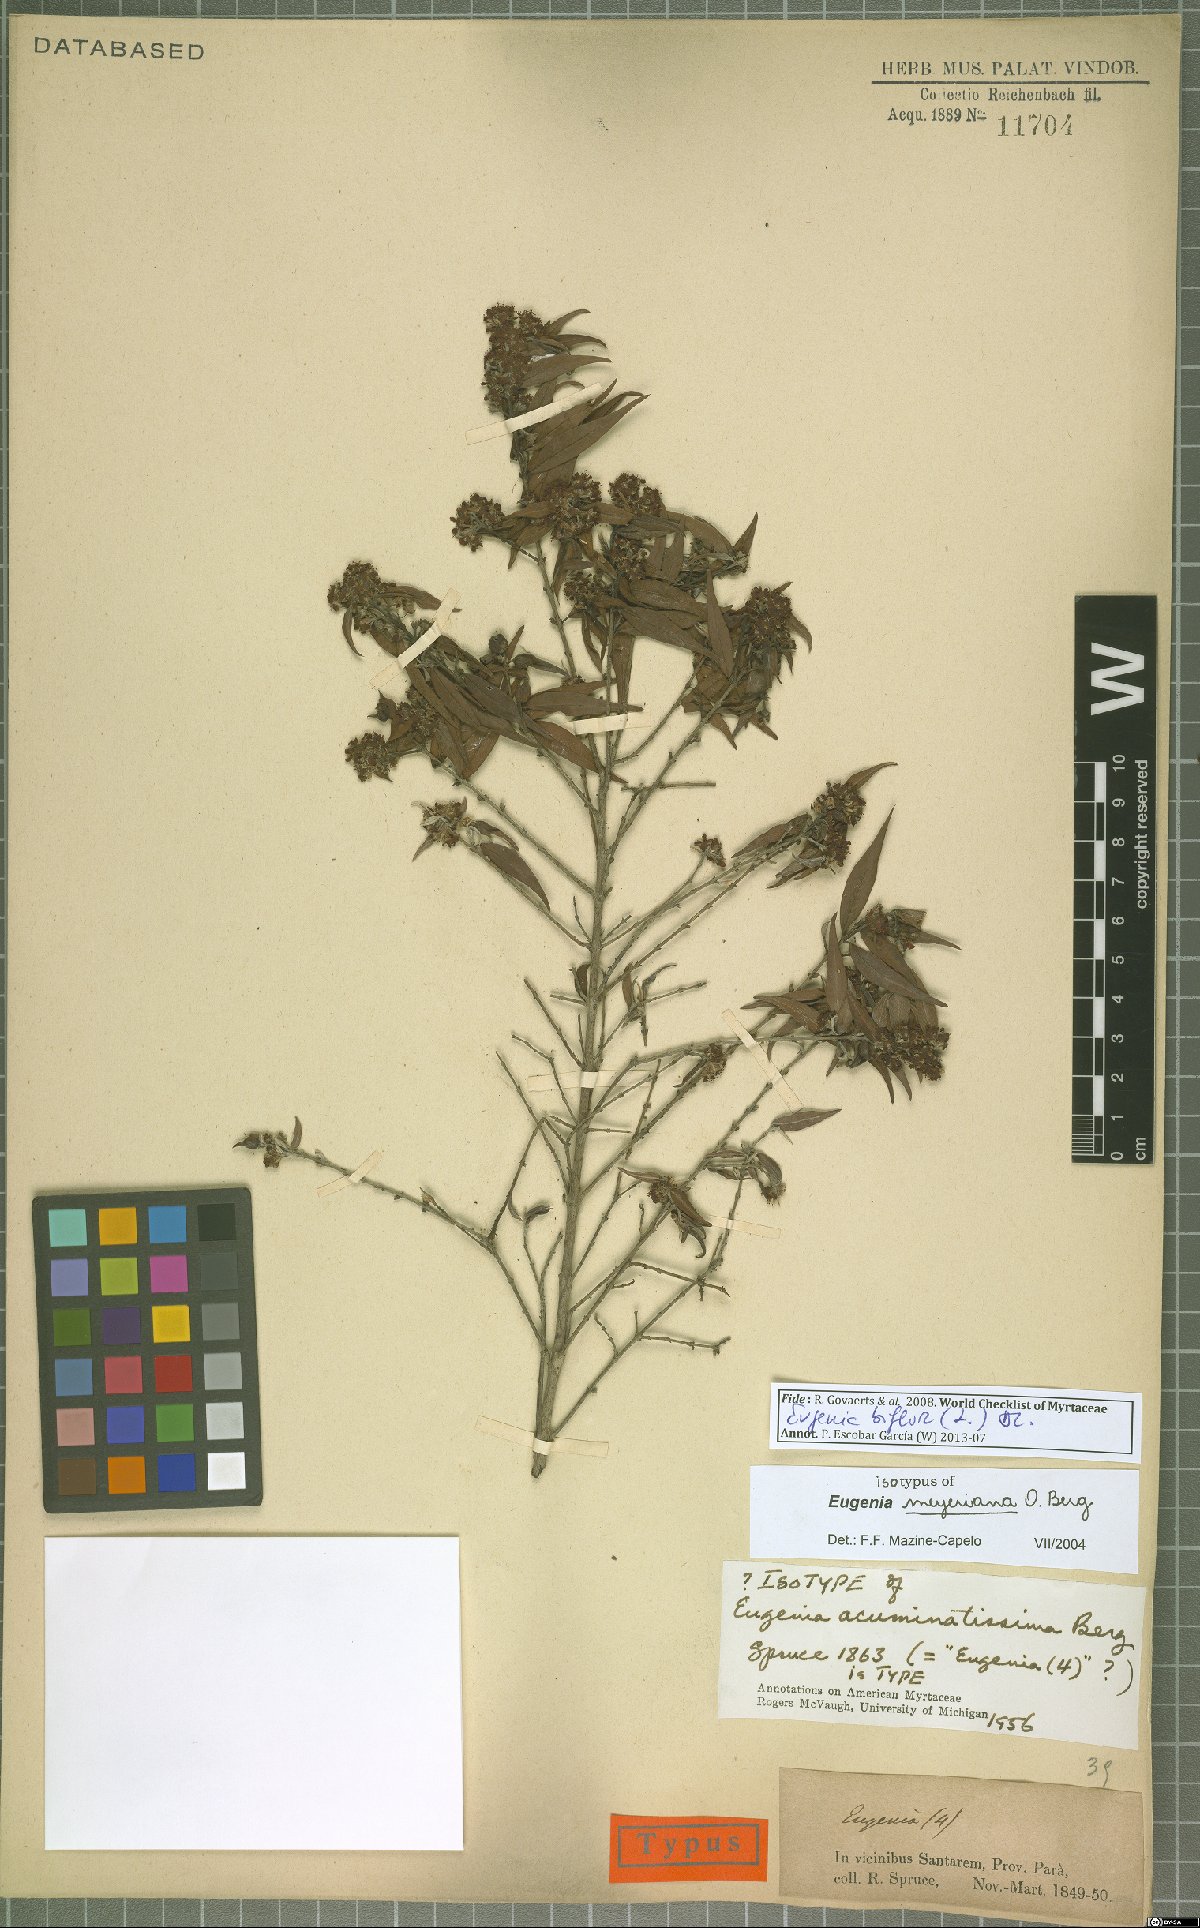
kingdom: Plantae
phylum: Tracheophyta
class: Magnoliopsida
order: Myrtales
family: Myrtaceae
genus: Eugenia
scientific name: Eugenia biflora
